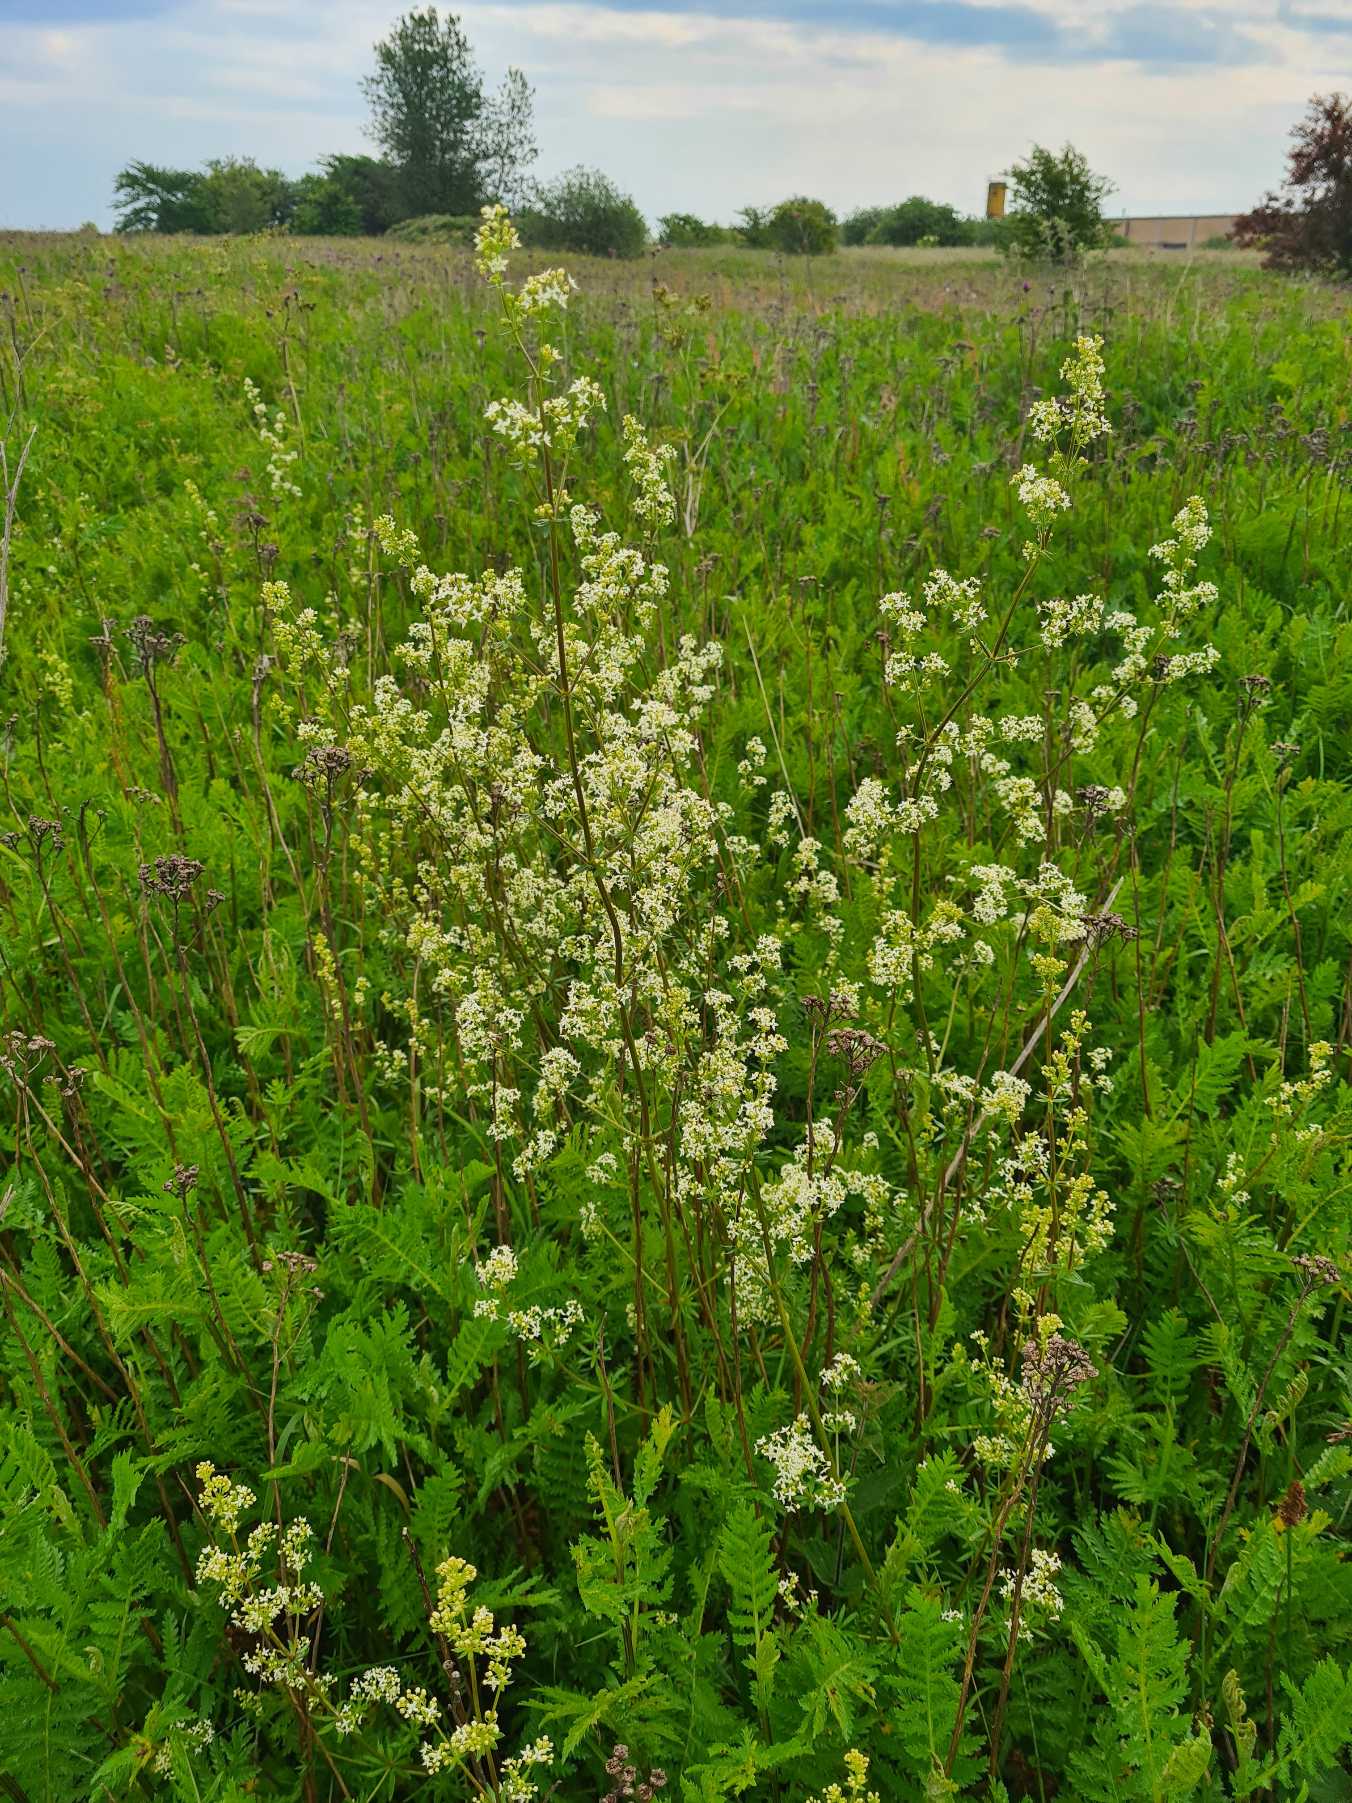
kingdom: Plantae
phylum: Tracheophyta
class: Magnoliopsida
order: Gentianales
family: Rubiaceae
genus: Galium
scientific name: Galium mollugo
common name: Hvid snerre
